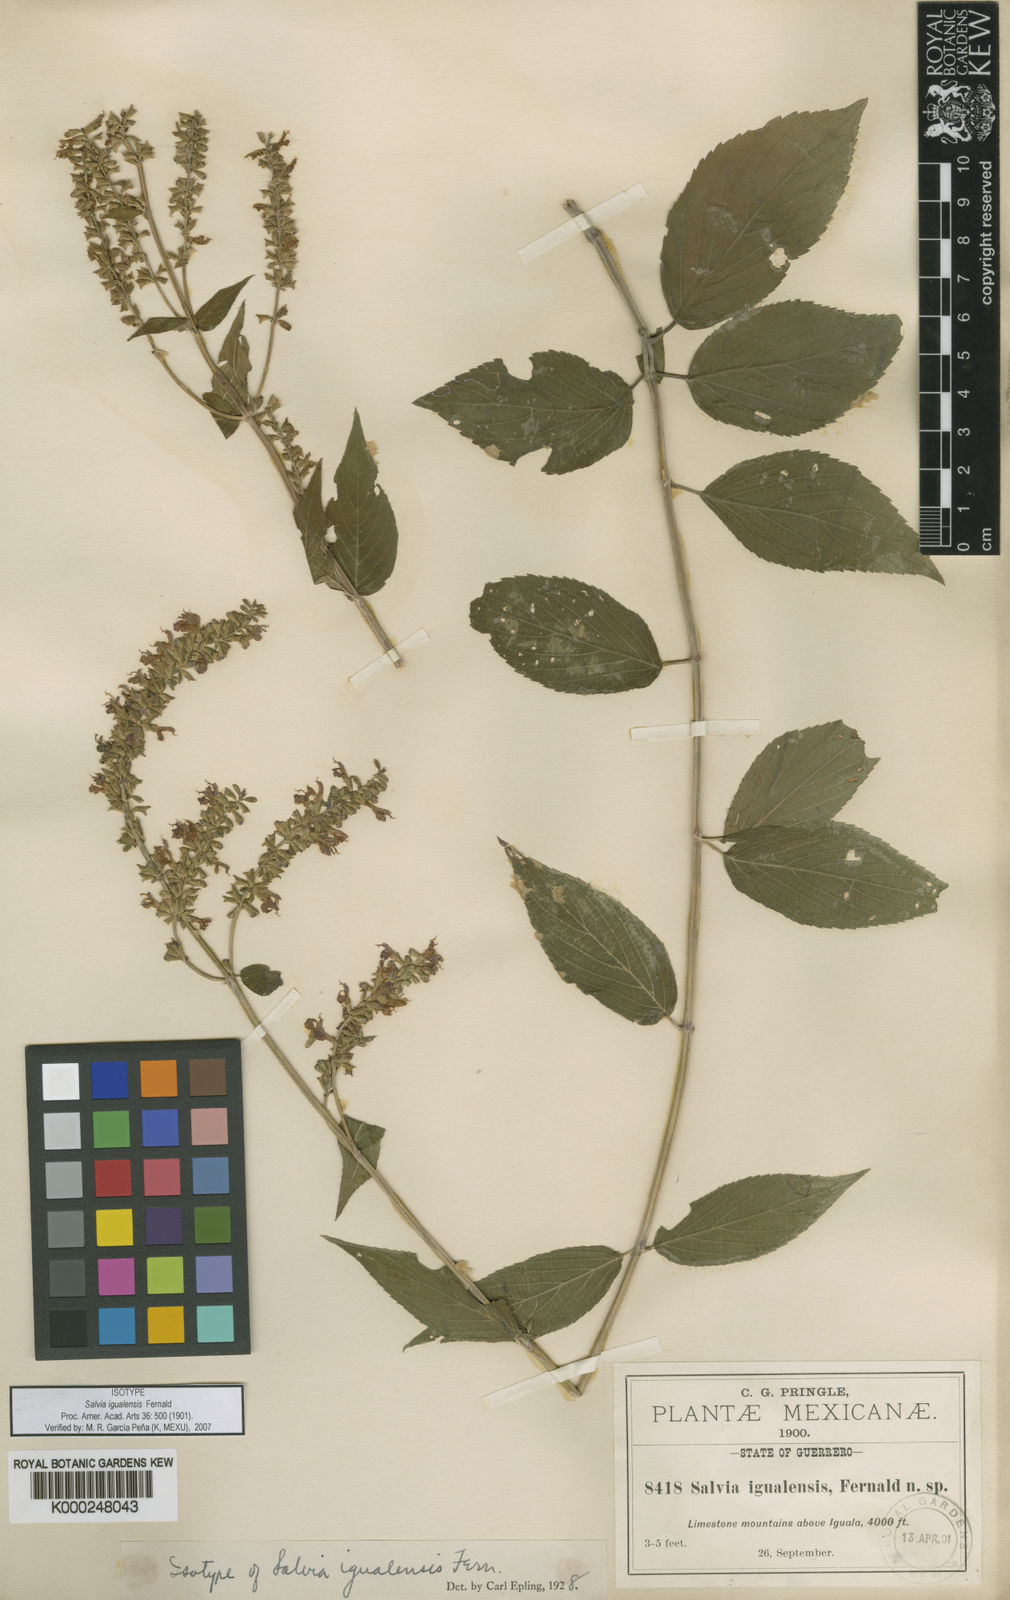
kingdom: Plantae
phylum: Tracheophyta
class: Magnoliopsida
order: Lamiales
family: Lamiaceae
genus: Salvia
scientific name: Salvia polystachia
